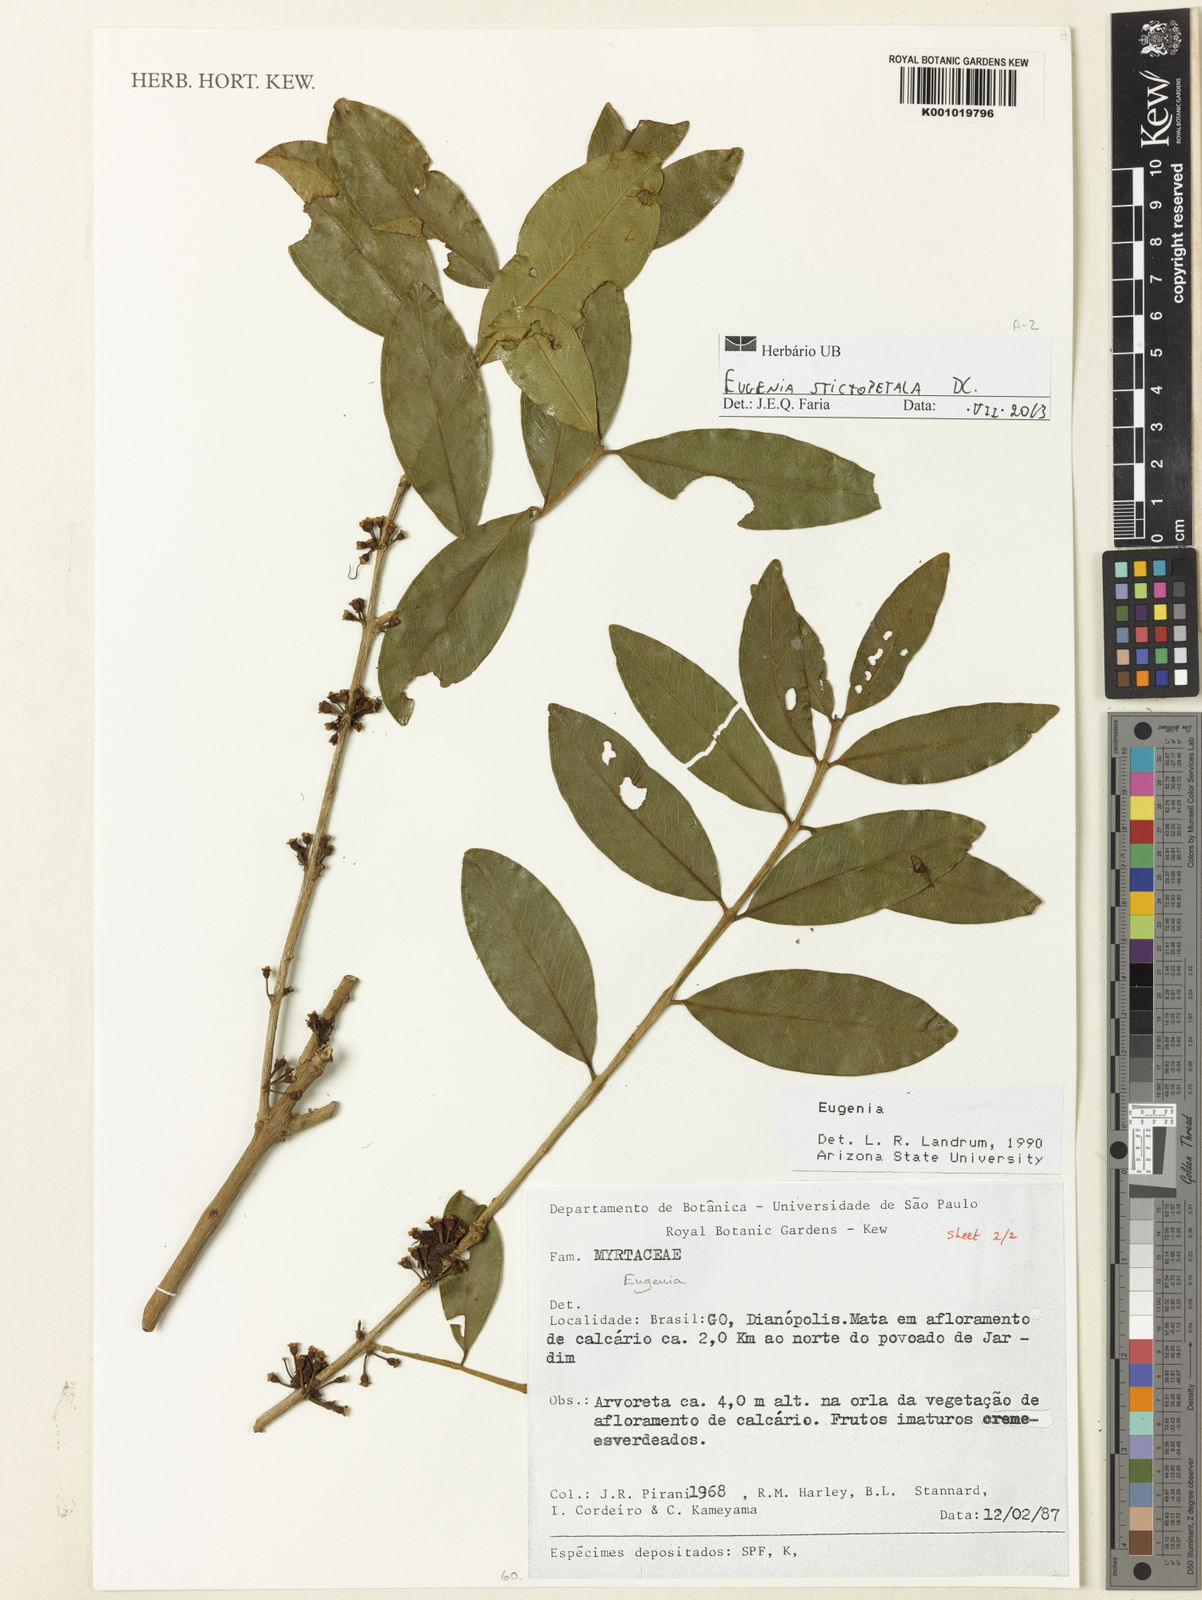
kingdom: Plantae
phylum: Tracheophyta
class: Magnoliopsida
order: Myrtales
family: Myrtaceae
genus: Eugenia
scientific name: Eugenia stictopetala
